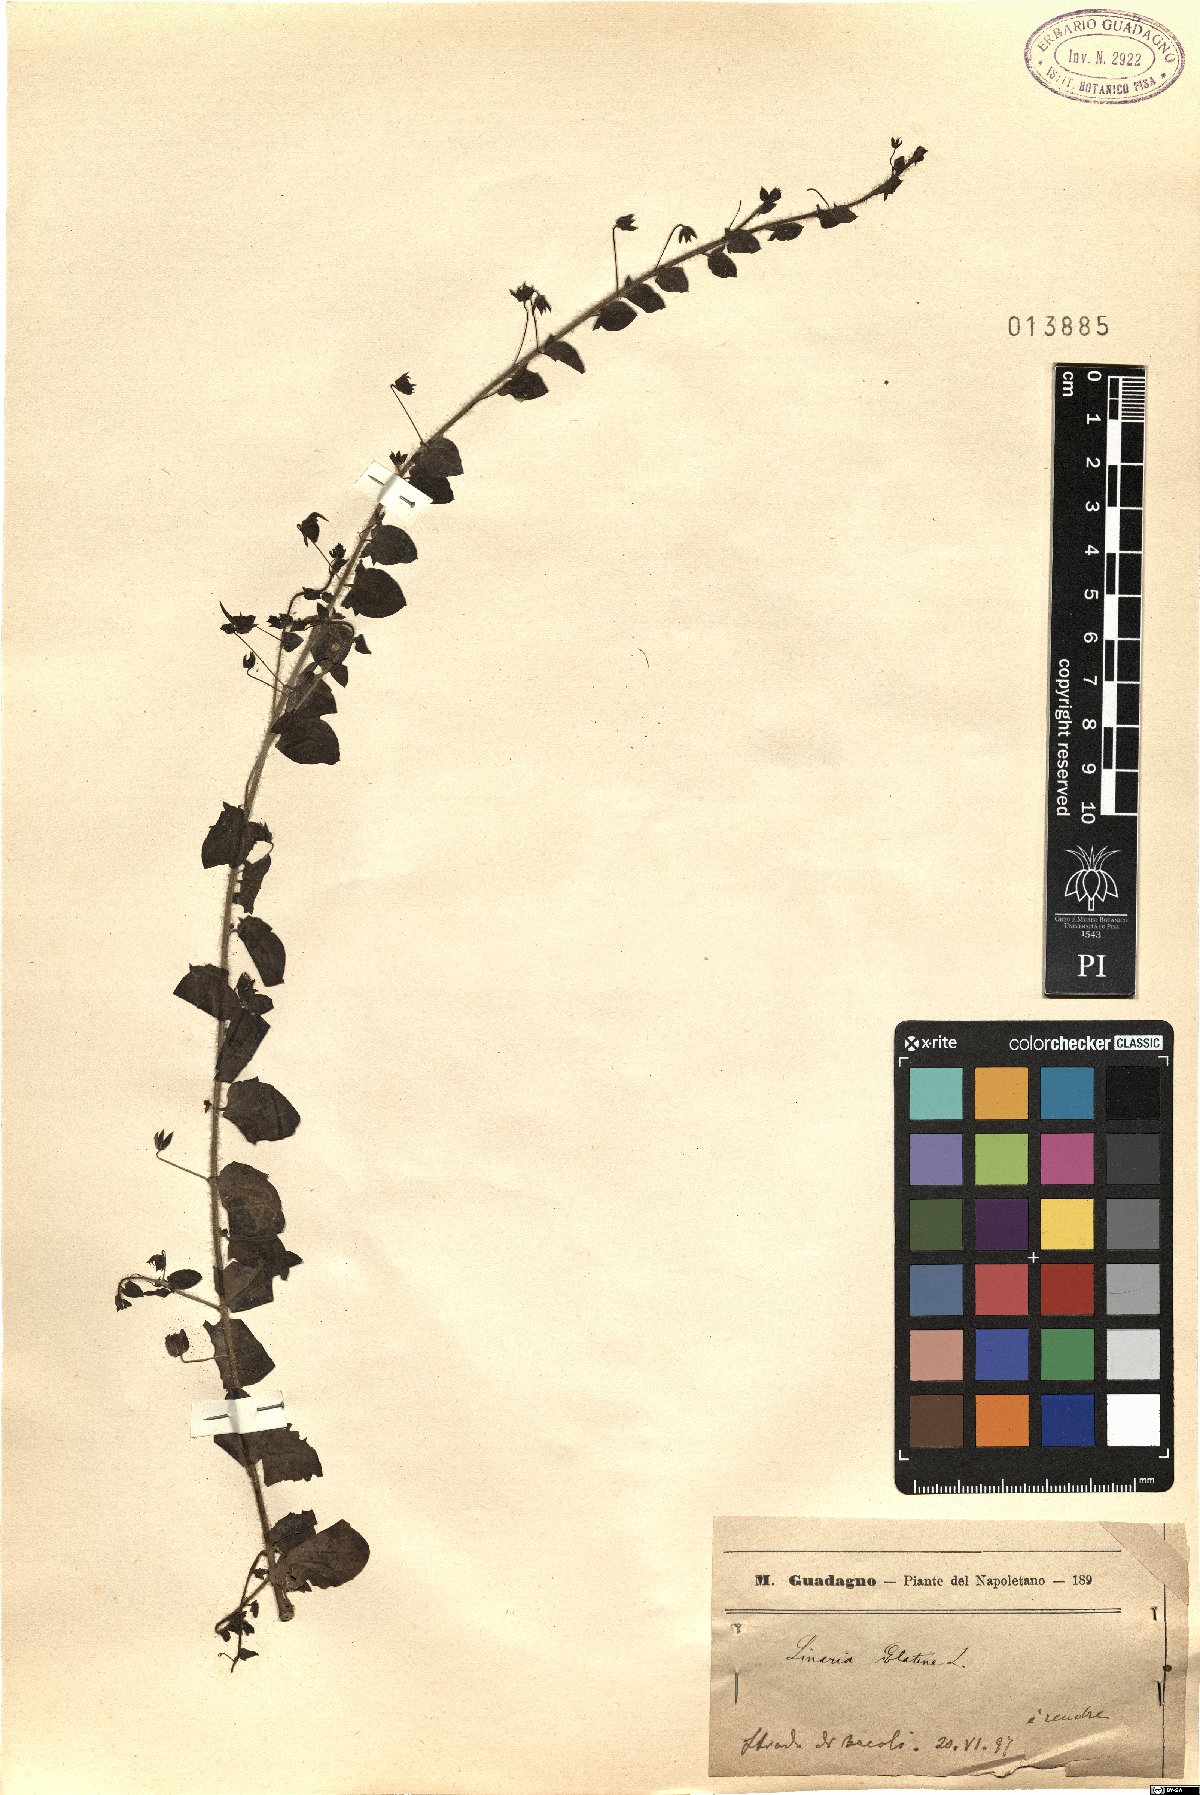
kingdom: Plantae
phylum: Tracheophyta
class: Magnoliopsida
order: Lamiales
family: Plantaginaceae
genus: Kickxia
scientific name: Kickxia elatine
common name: Sharp-leaved fluellen
